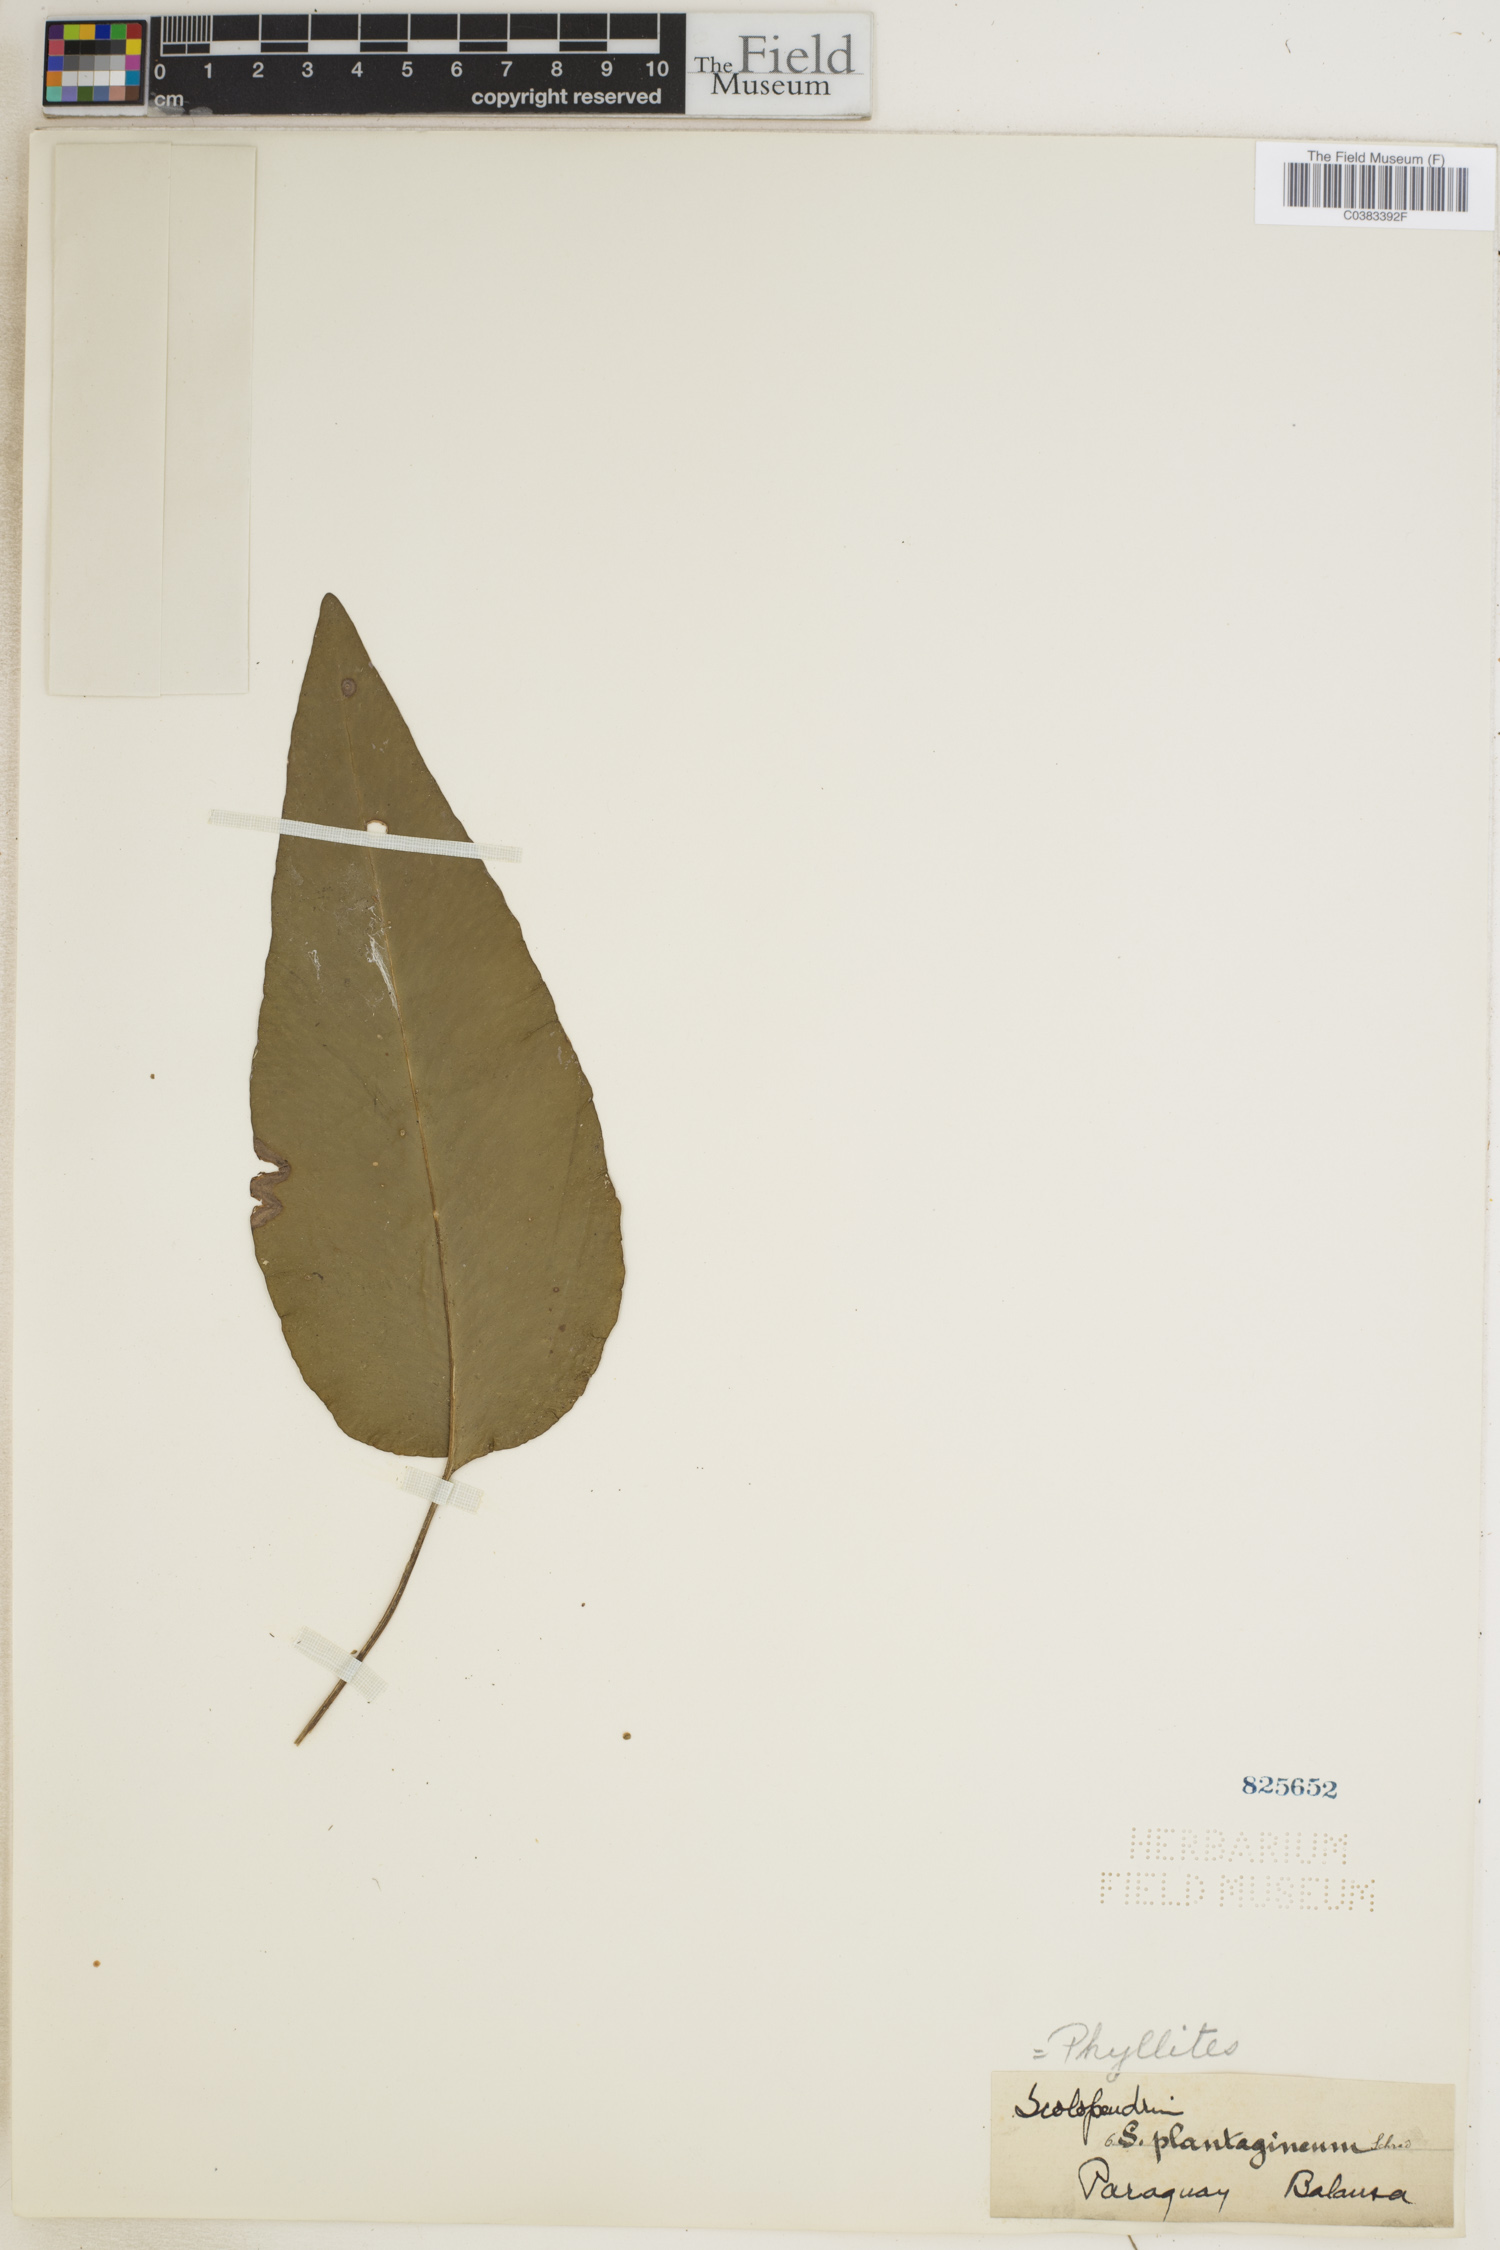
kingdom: Plantae
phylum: Tracheophyta
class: Polypodiopsida
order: Polypodiales
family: Aspleniaceae
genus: Asplenium
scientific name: Asplenium douglasii
